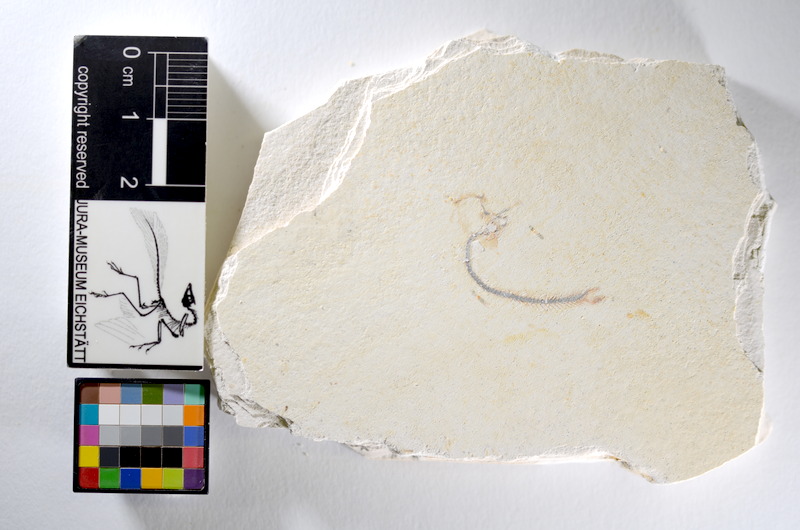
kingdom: Animalia
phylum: Chordata
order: Salmoniformes
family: Orthogonikleithridae
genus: Orthogonikleithrus
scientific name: Orthogonikleithrus hoelli
